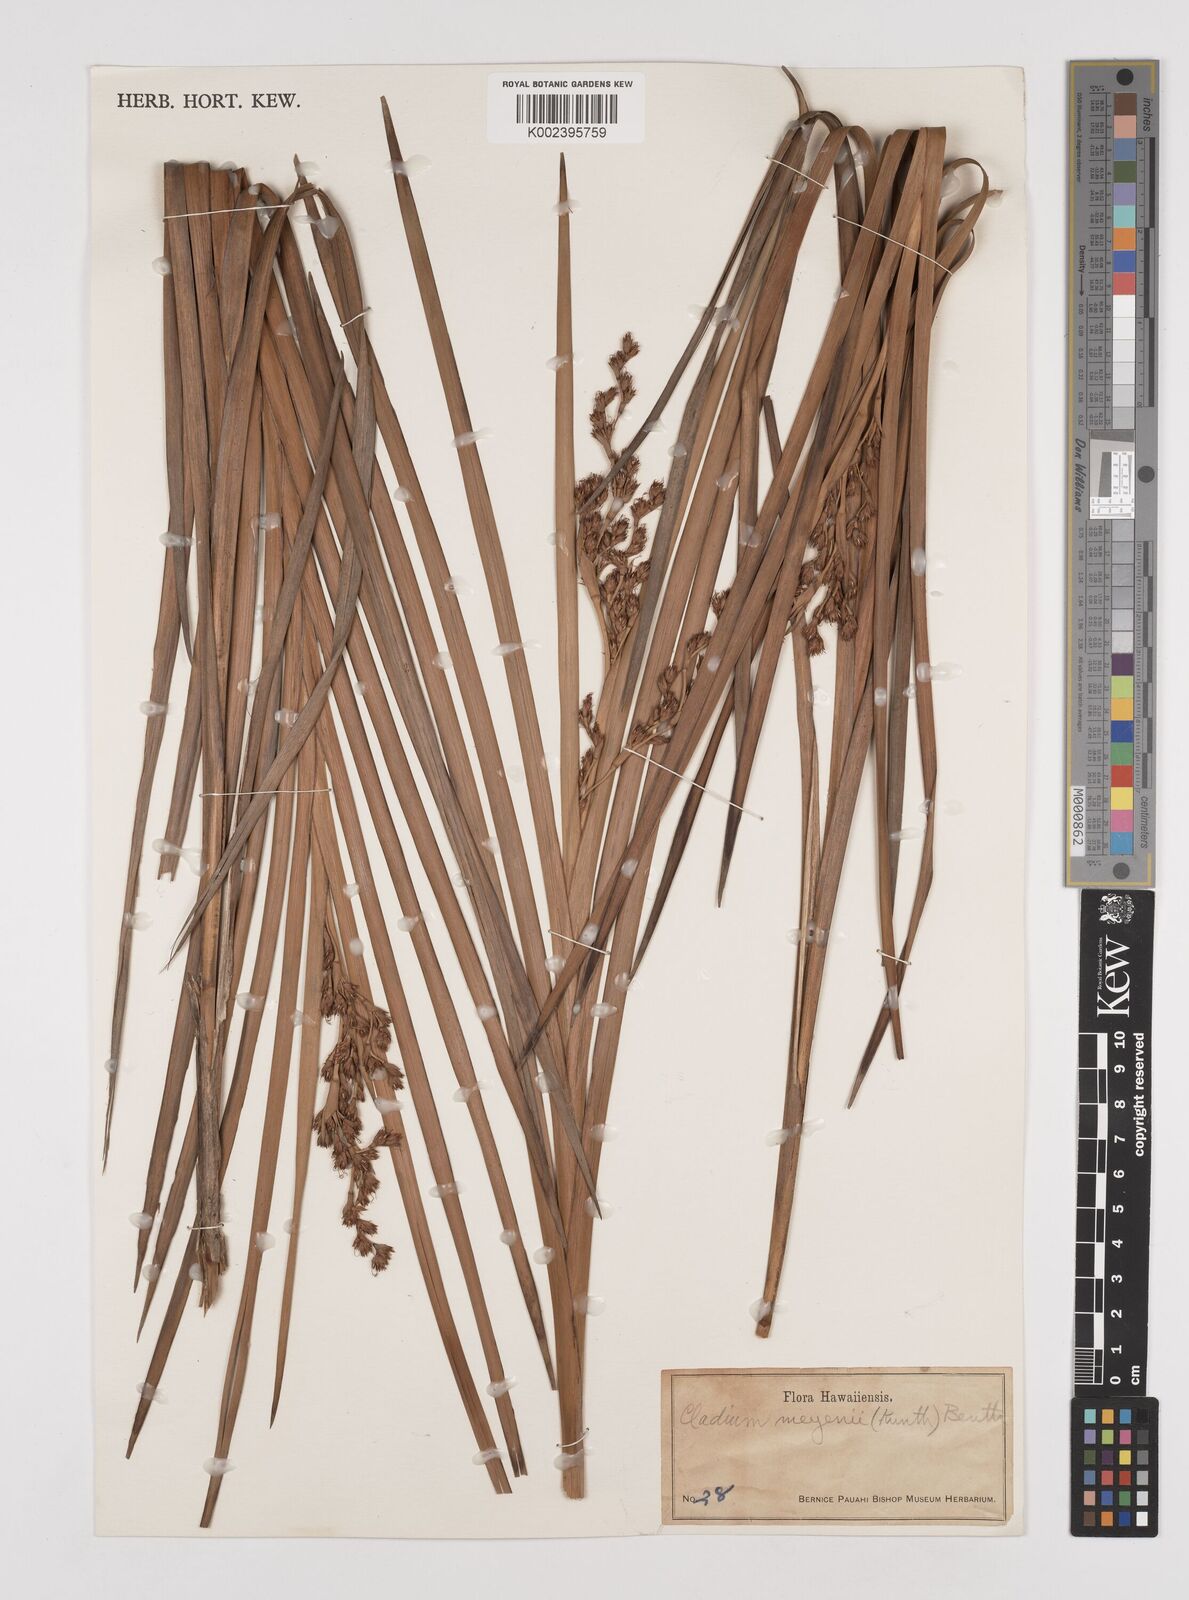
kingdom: Plantae
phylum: Tracheophyta
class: Liliopsida
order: Poales
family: Cyperaceae
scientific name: Cyperaceae
